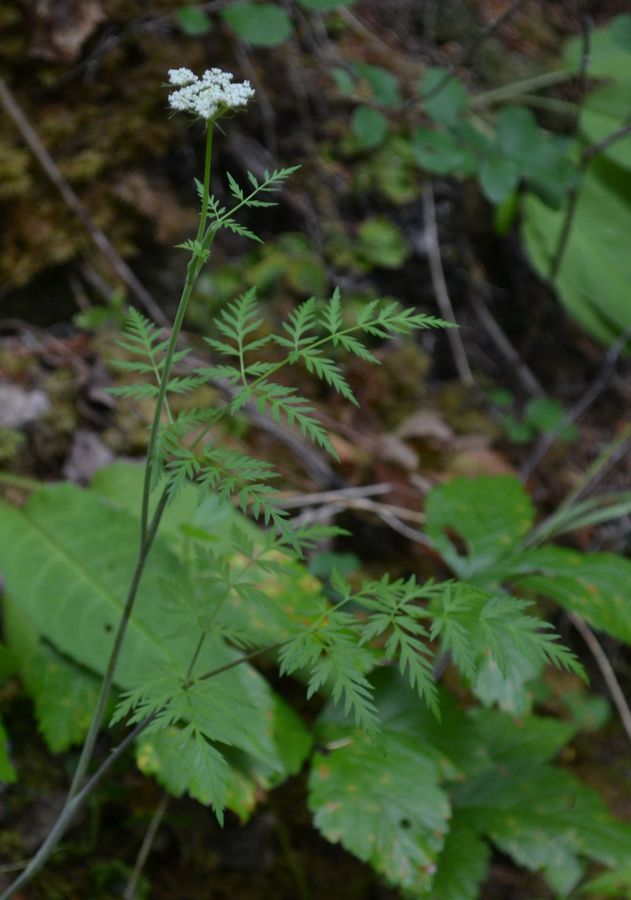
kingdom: Plantae
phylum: Tracheophyta
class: Magnoliopsida
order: Apiales
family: Apiaceae
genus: Conioselinum
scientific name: Conioselinum tataricum
